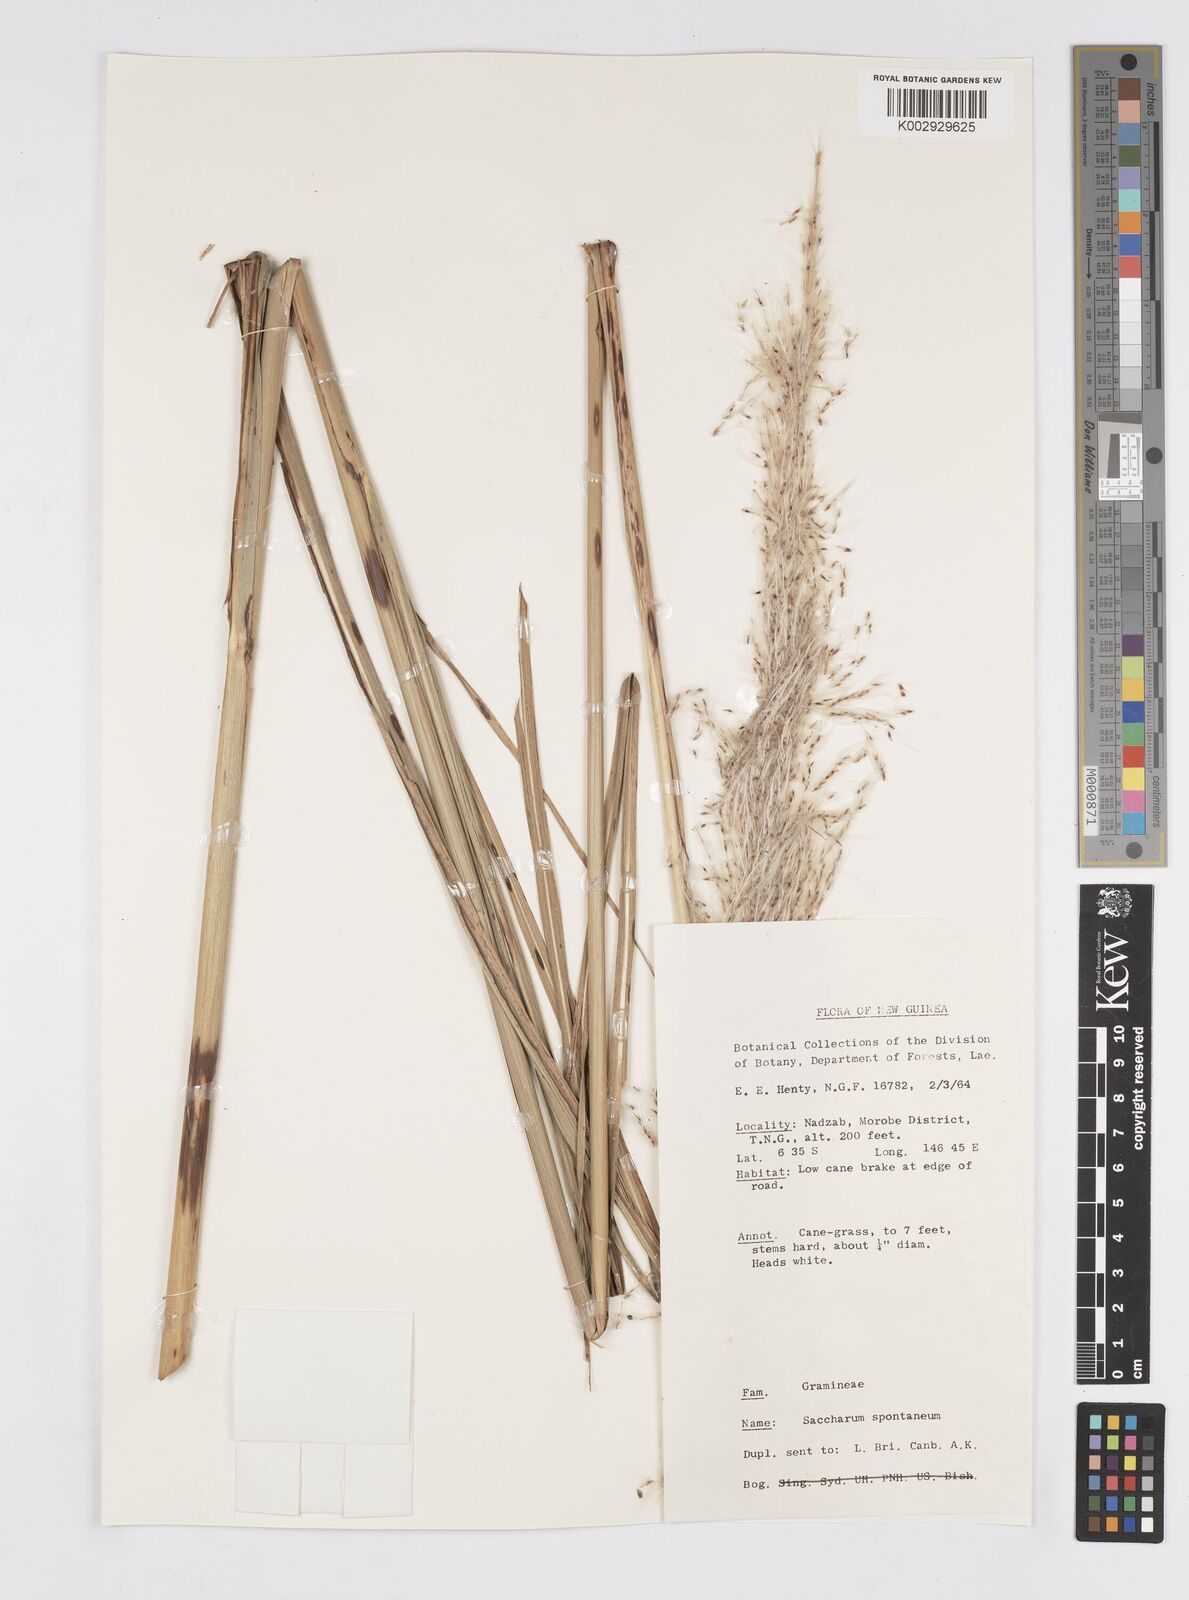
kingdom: Plantae
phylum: Tracheophyta
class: Liliopsida
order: Poales
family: Poaceae
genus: Saccharum
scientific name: Saccharum spontaneum
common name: Wild sugarcane
